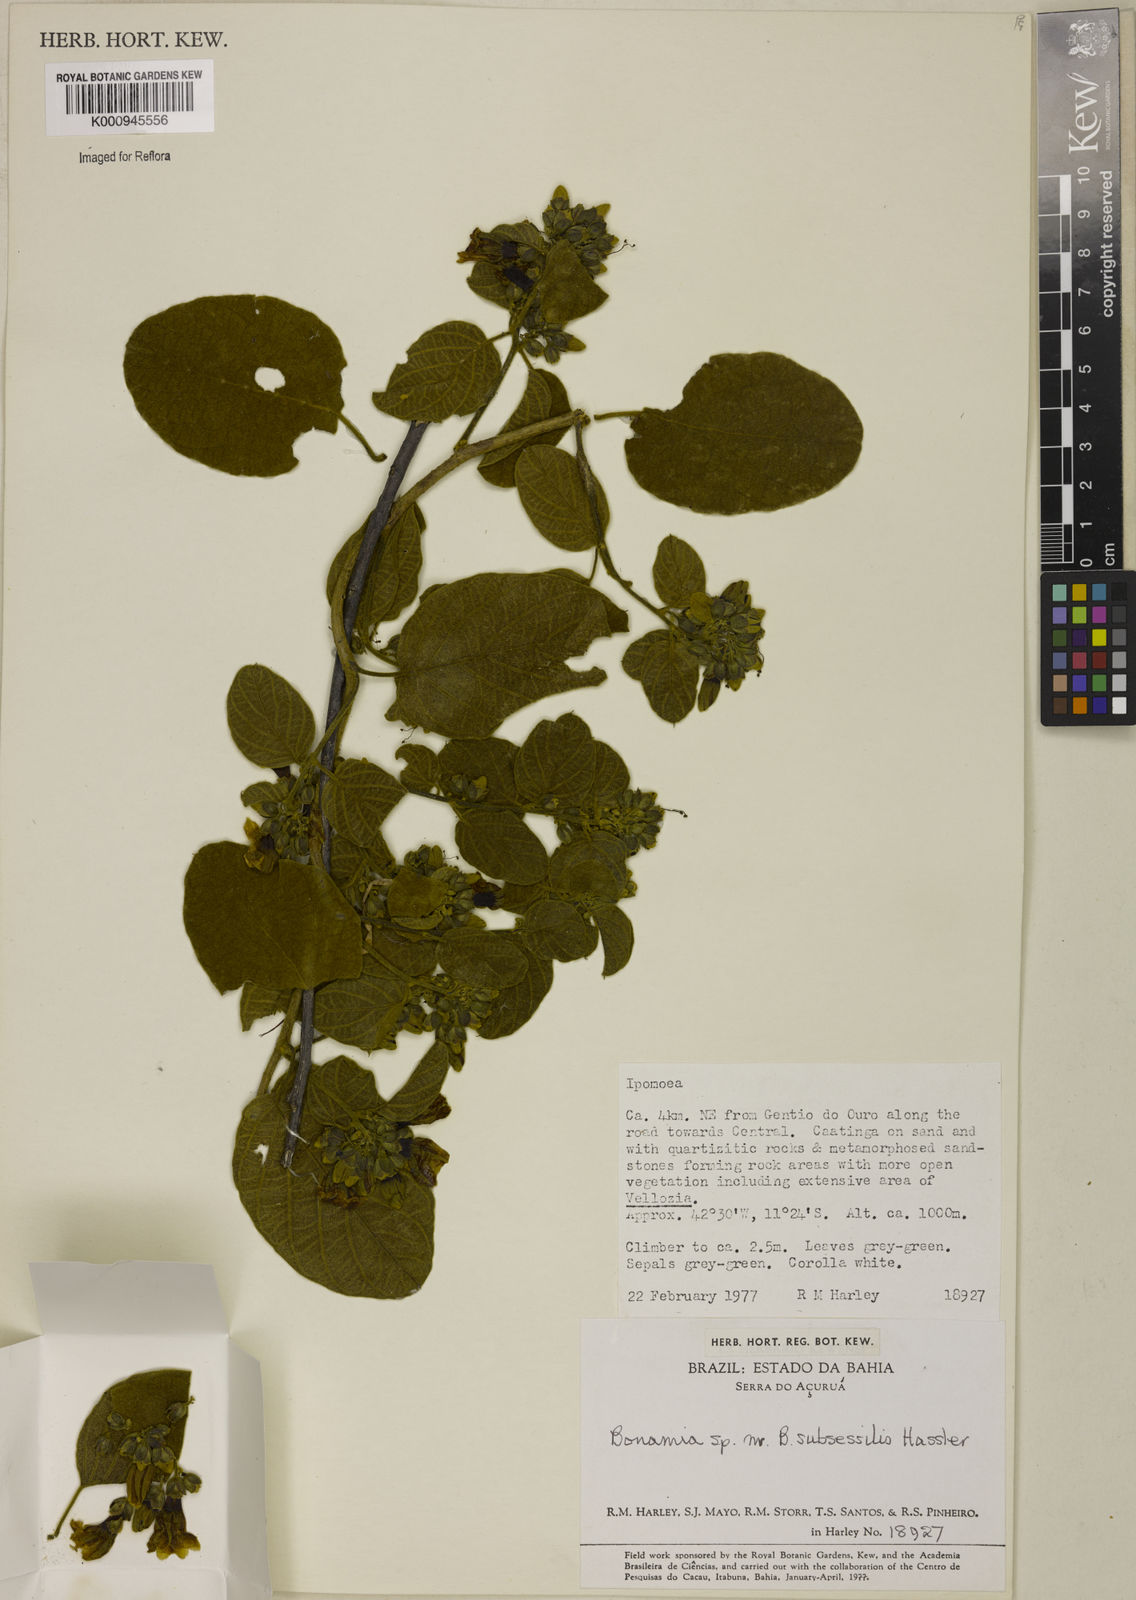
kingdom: Plantae
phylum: Tracheophyta
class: Magnoliopsida
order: Solanales
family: Convolvulaceae
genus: Bonamia
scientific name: Bonamia
